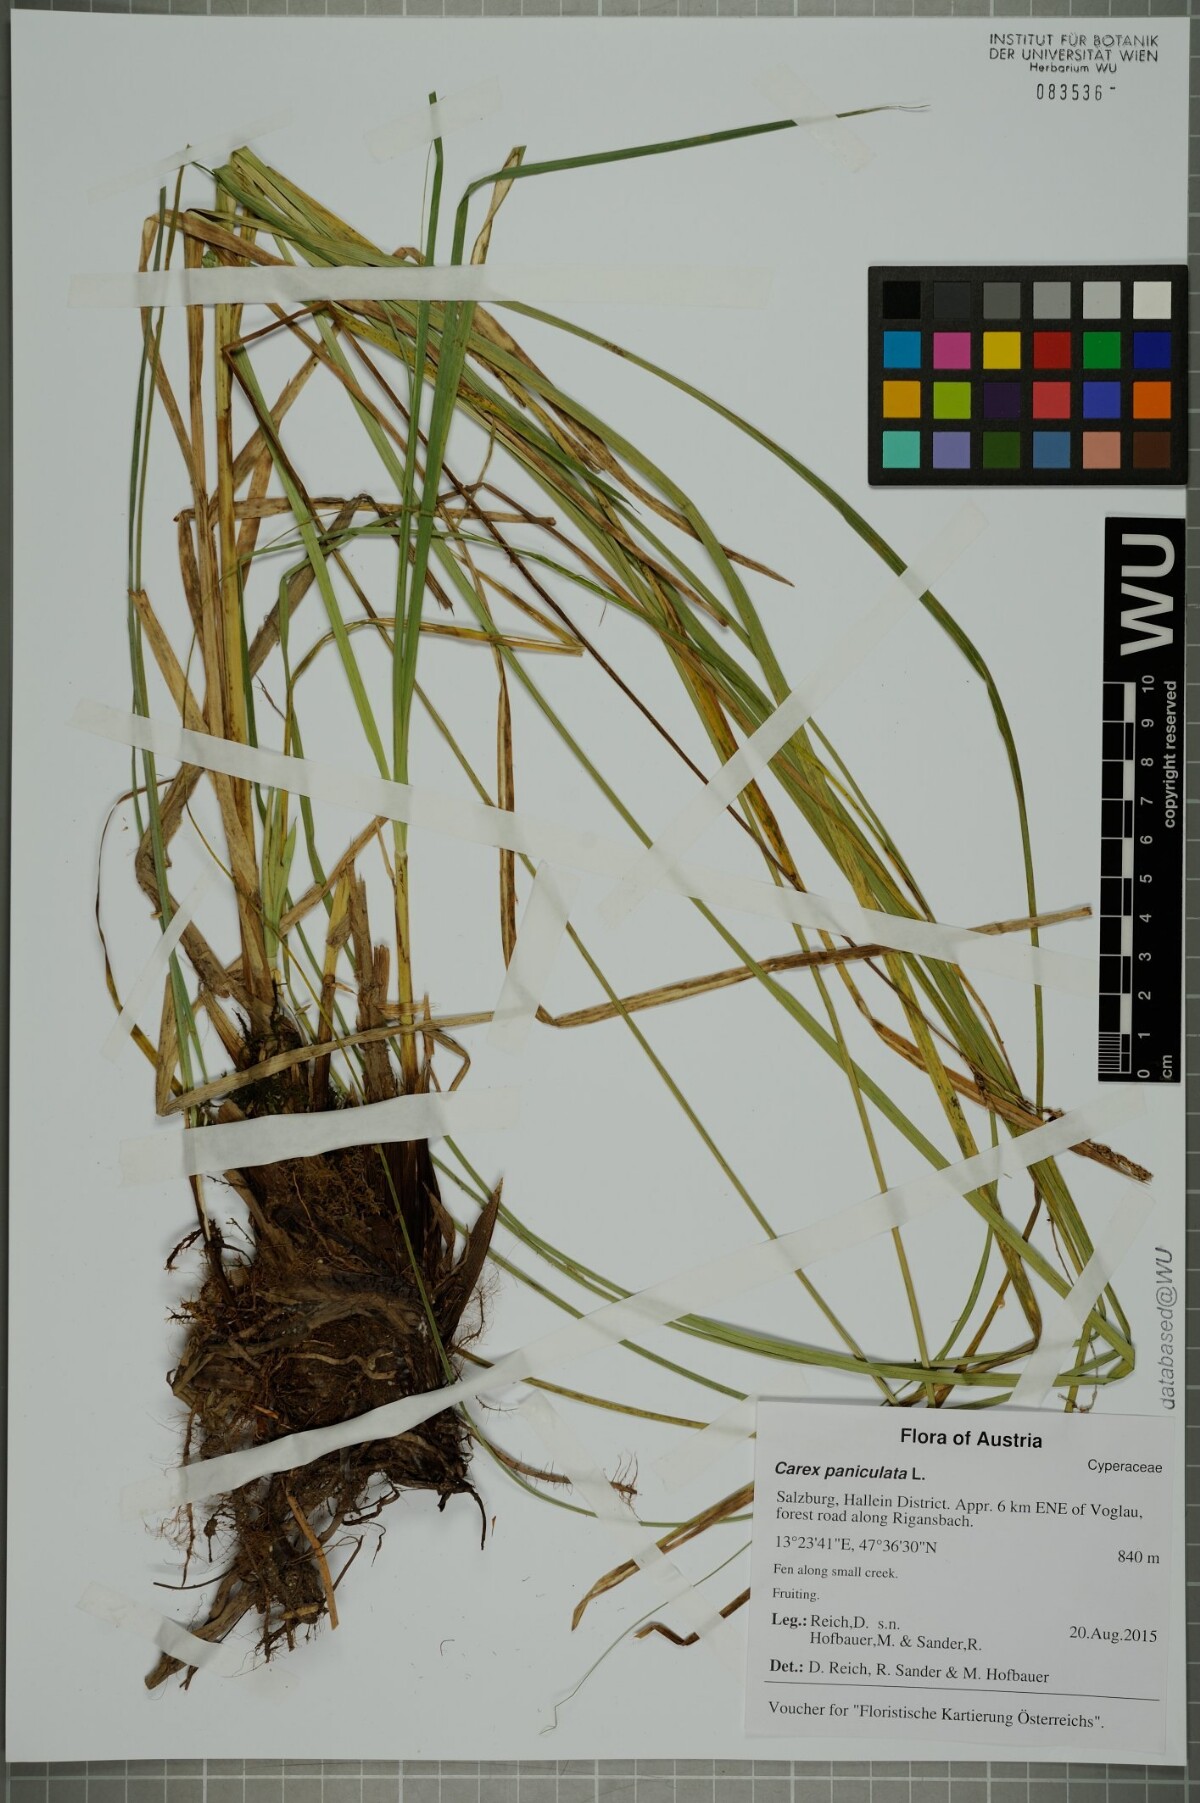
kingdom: Plantae
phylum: Tracheophyta
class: Liliopsida
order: Poales
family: Cyperaceae
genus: Carex
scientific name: Carex paniculata
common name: Greater tussock-sedge
